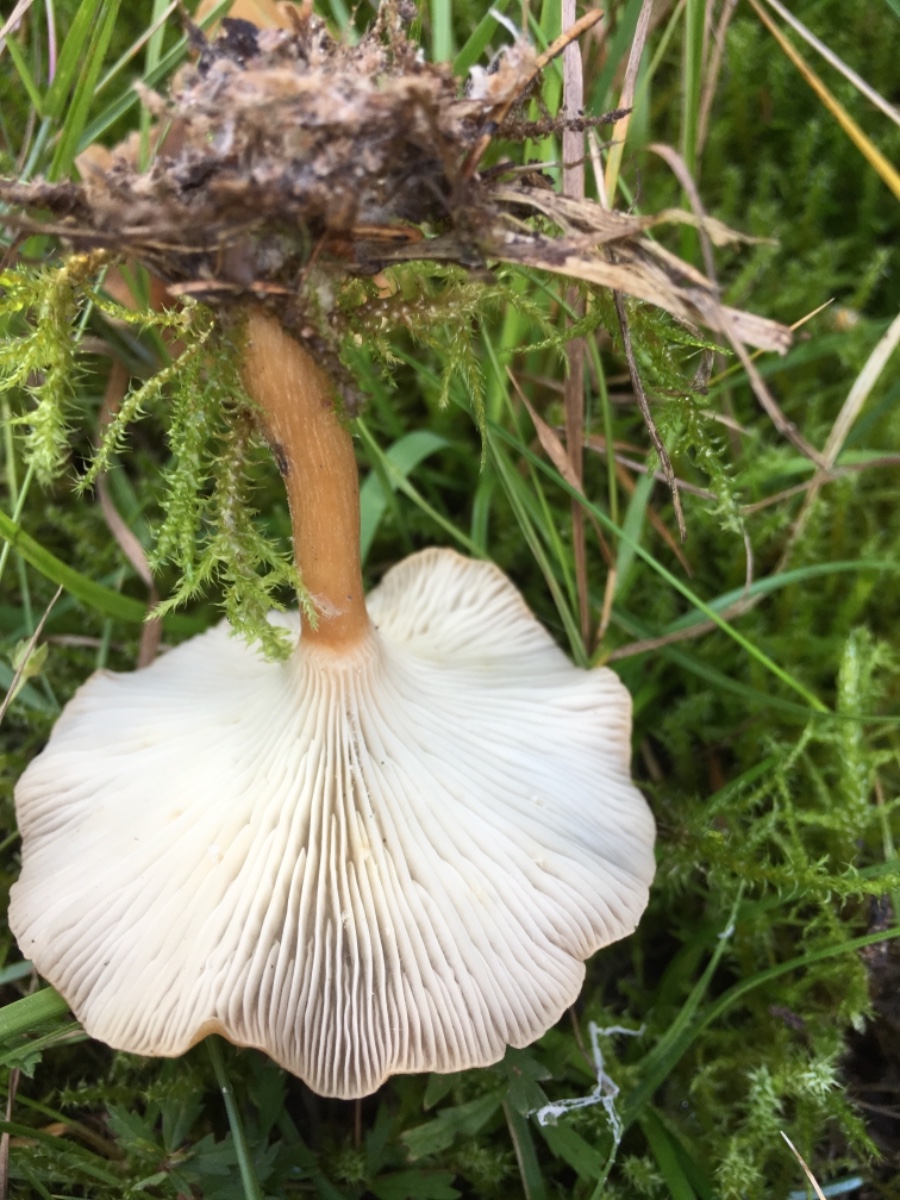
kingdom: Fungi
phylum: Basidiomycota
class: Agaricomycetes
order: Agaricales
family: Tricholomataceae
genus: Infundibulicybe
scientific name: Infundibulicybe gibba
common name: almindelig tragthat
